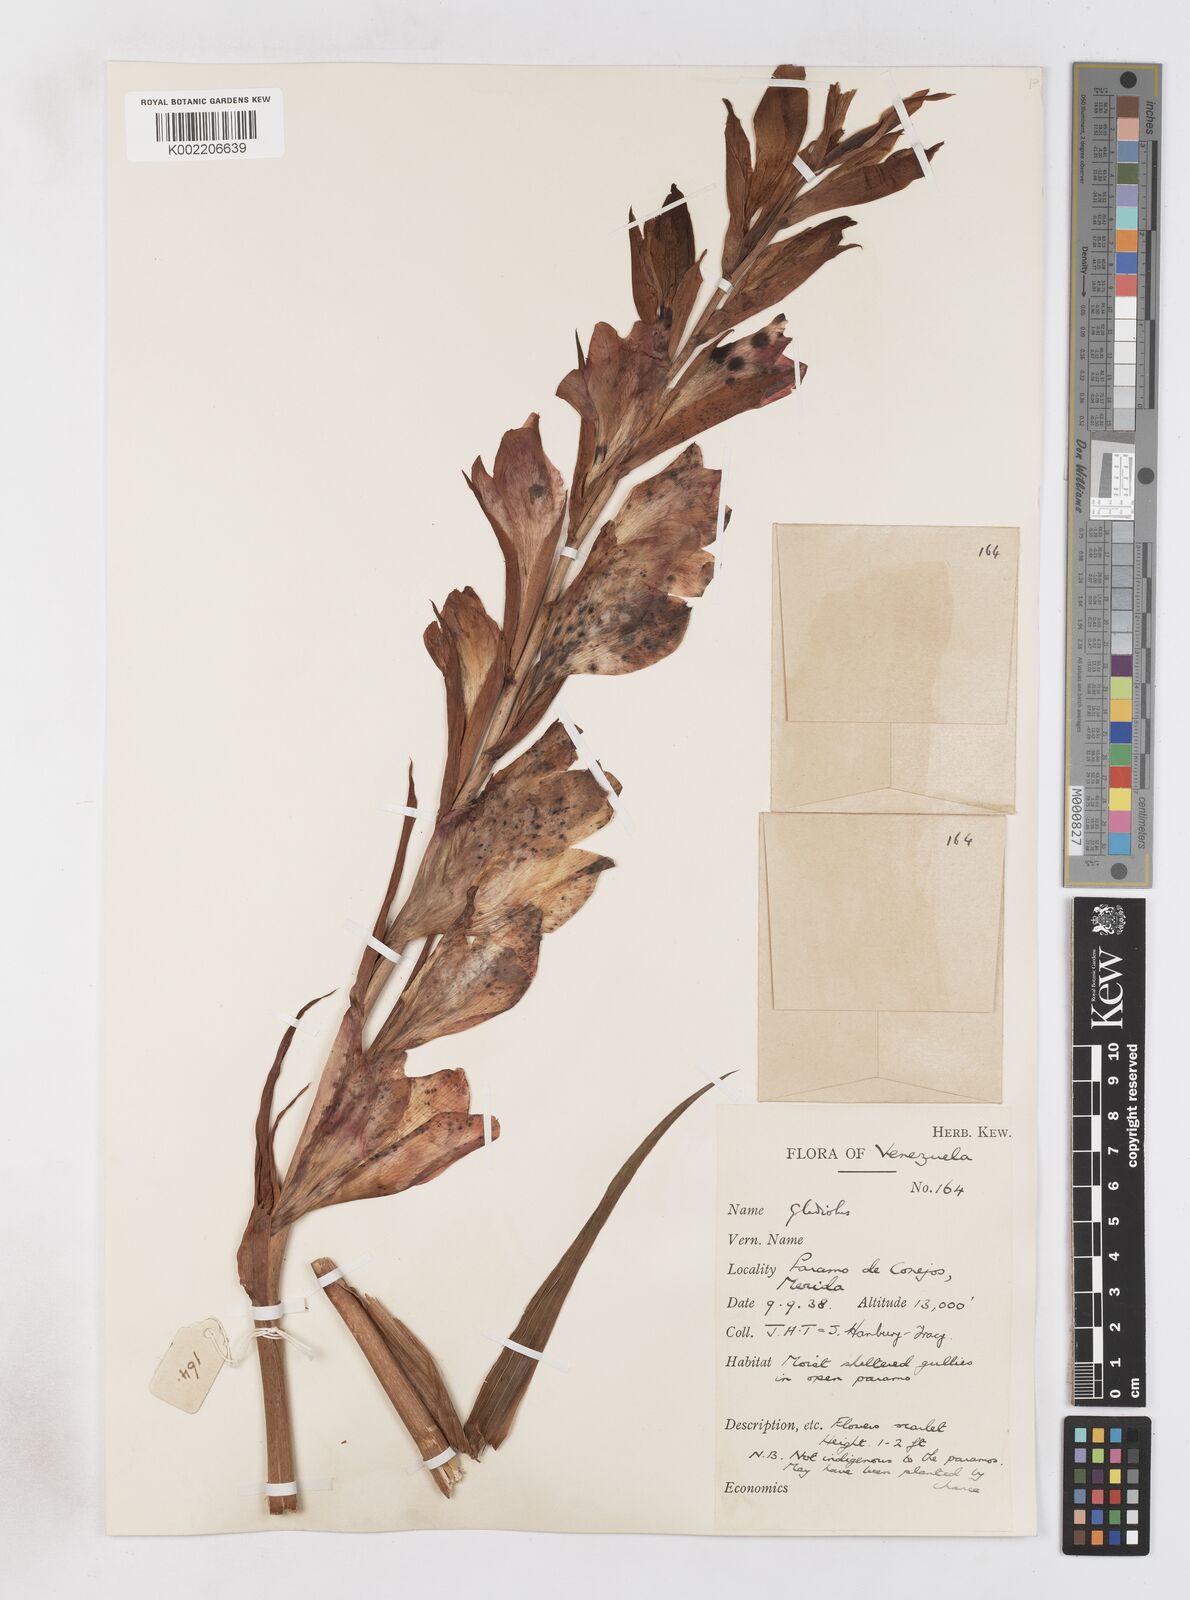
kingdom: Plantae
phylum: Tracheophyta
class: Liliopsida
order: Asparagales
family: Iridaceae
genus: Gladiolus
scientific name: Gladiolus
